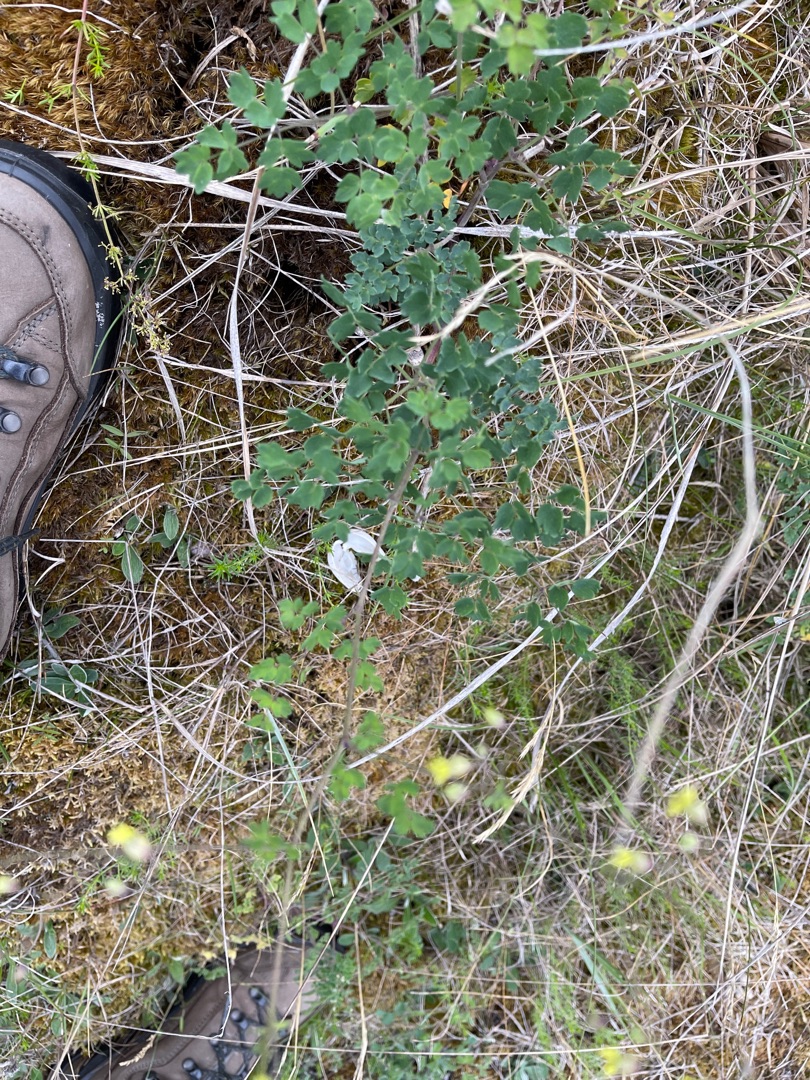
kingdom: Plantae
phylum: Tracheophyta
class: Magnoliopsida
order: Ranunculales
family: Ranunculaceae
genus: Thalictrum
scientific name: Thalictrum minus
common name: Liden frøstjerne
